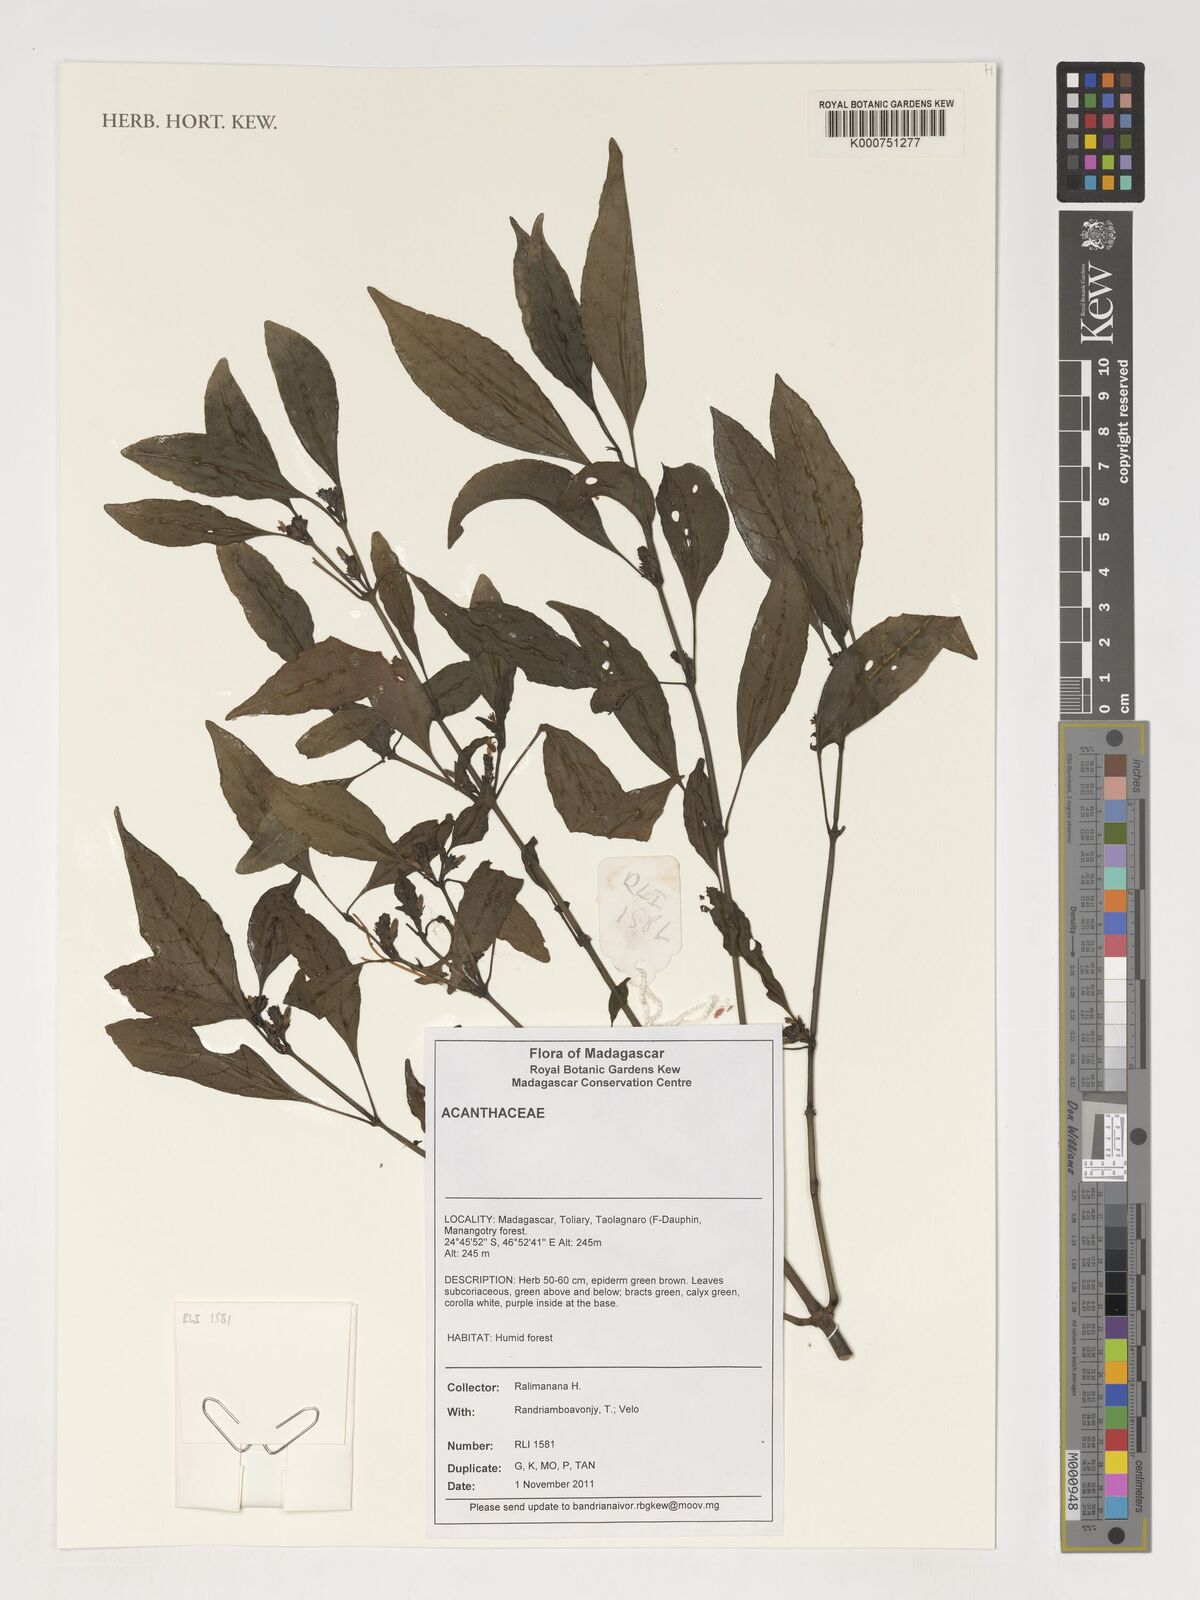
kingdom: Plantae
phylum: Tracheophyta
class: Magnoliopsida
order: Lamiales
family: Acanthaceae
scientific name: Acanthaceae
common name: Acanthaceae
